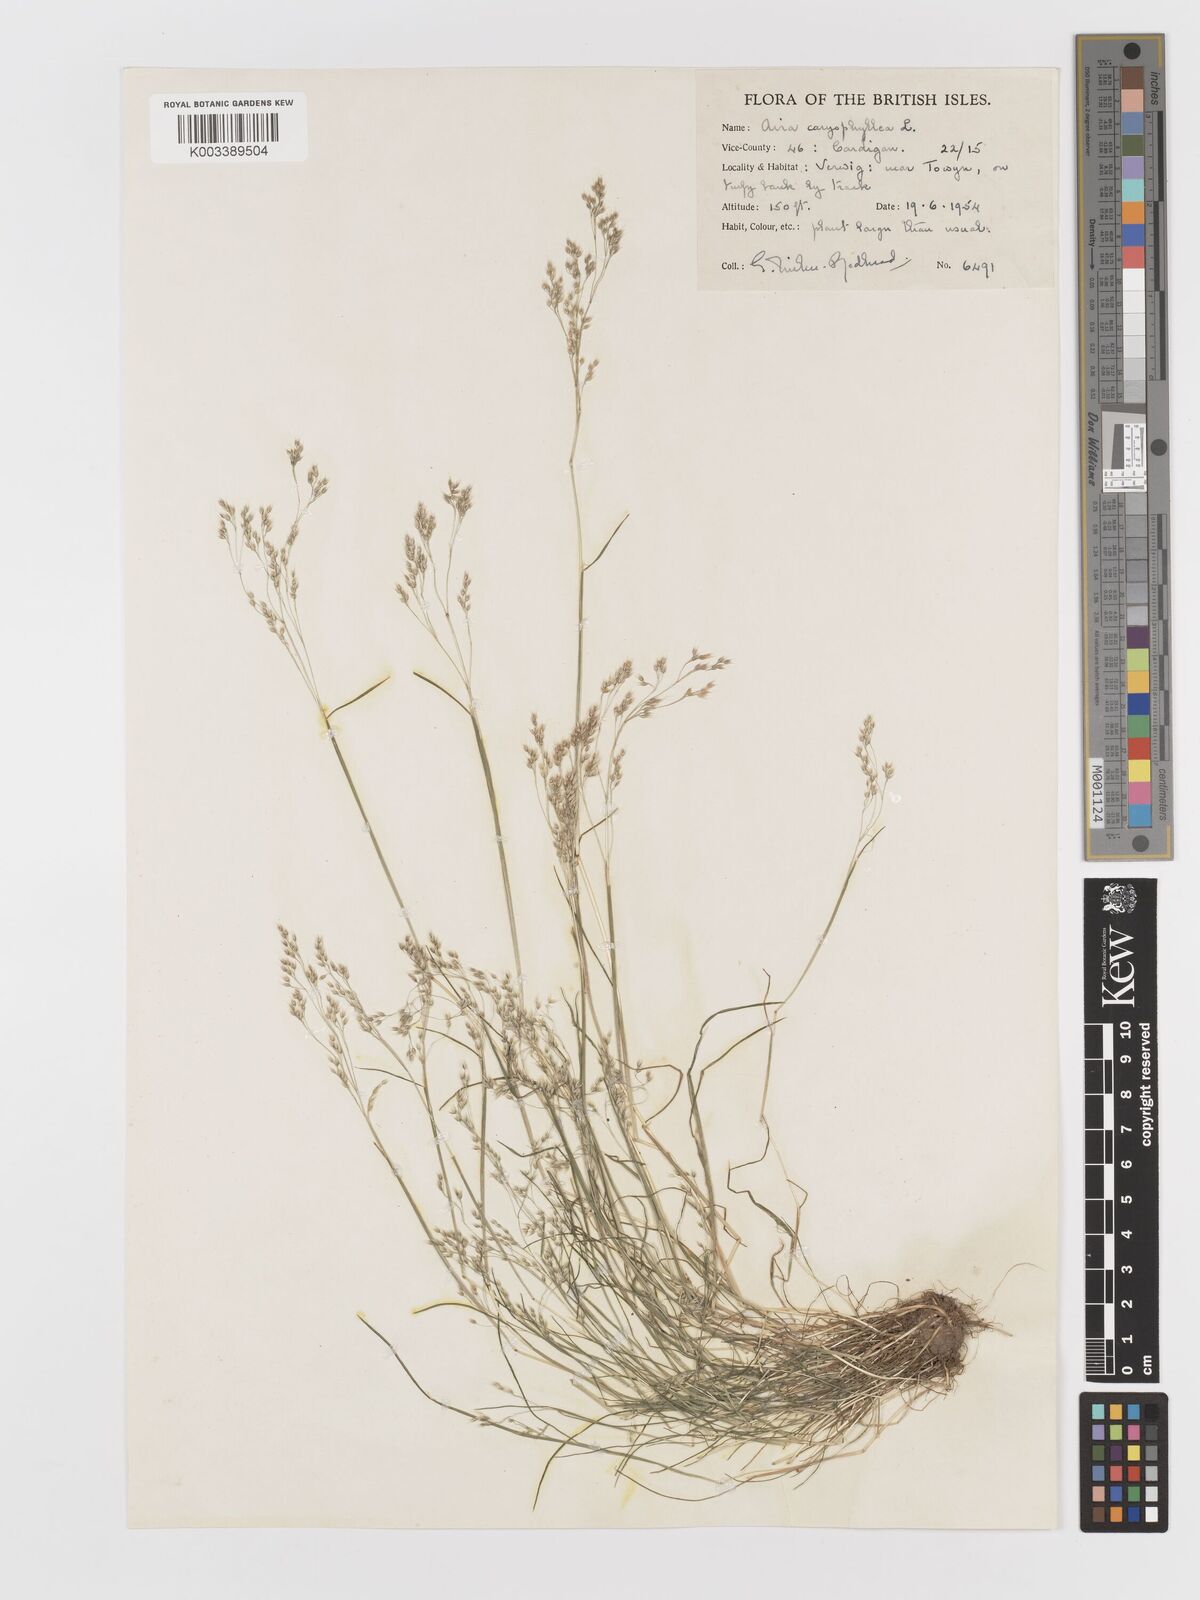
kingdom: Plantae
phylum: Tracheophyta
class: Liliopsida
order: Poales
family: Poaceae
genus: Aira
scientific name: Aira caryophyllea
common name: Silver hairgrass
